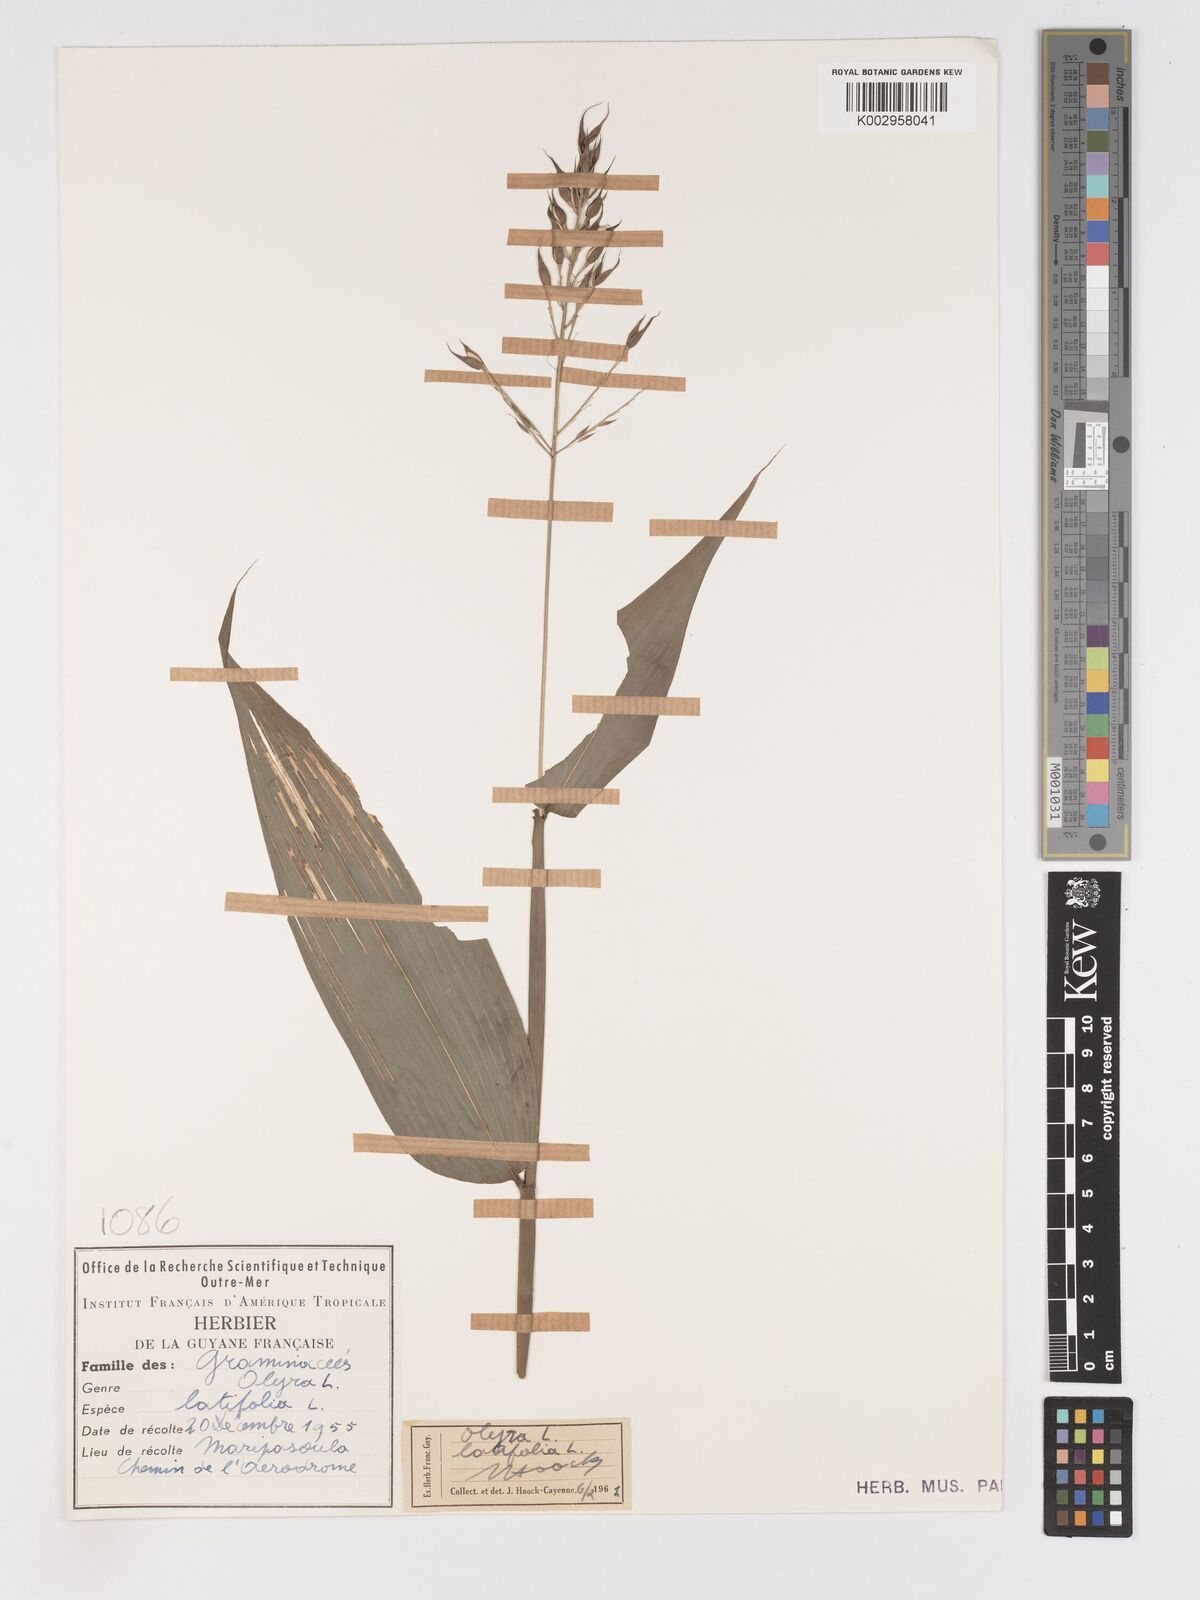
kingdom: Plantae
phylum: Tracheophyta
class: Liliopsida
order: Poales
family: Poaceae
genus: Olyra
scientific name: Olyra latifolia
